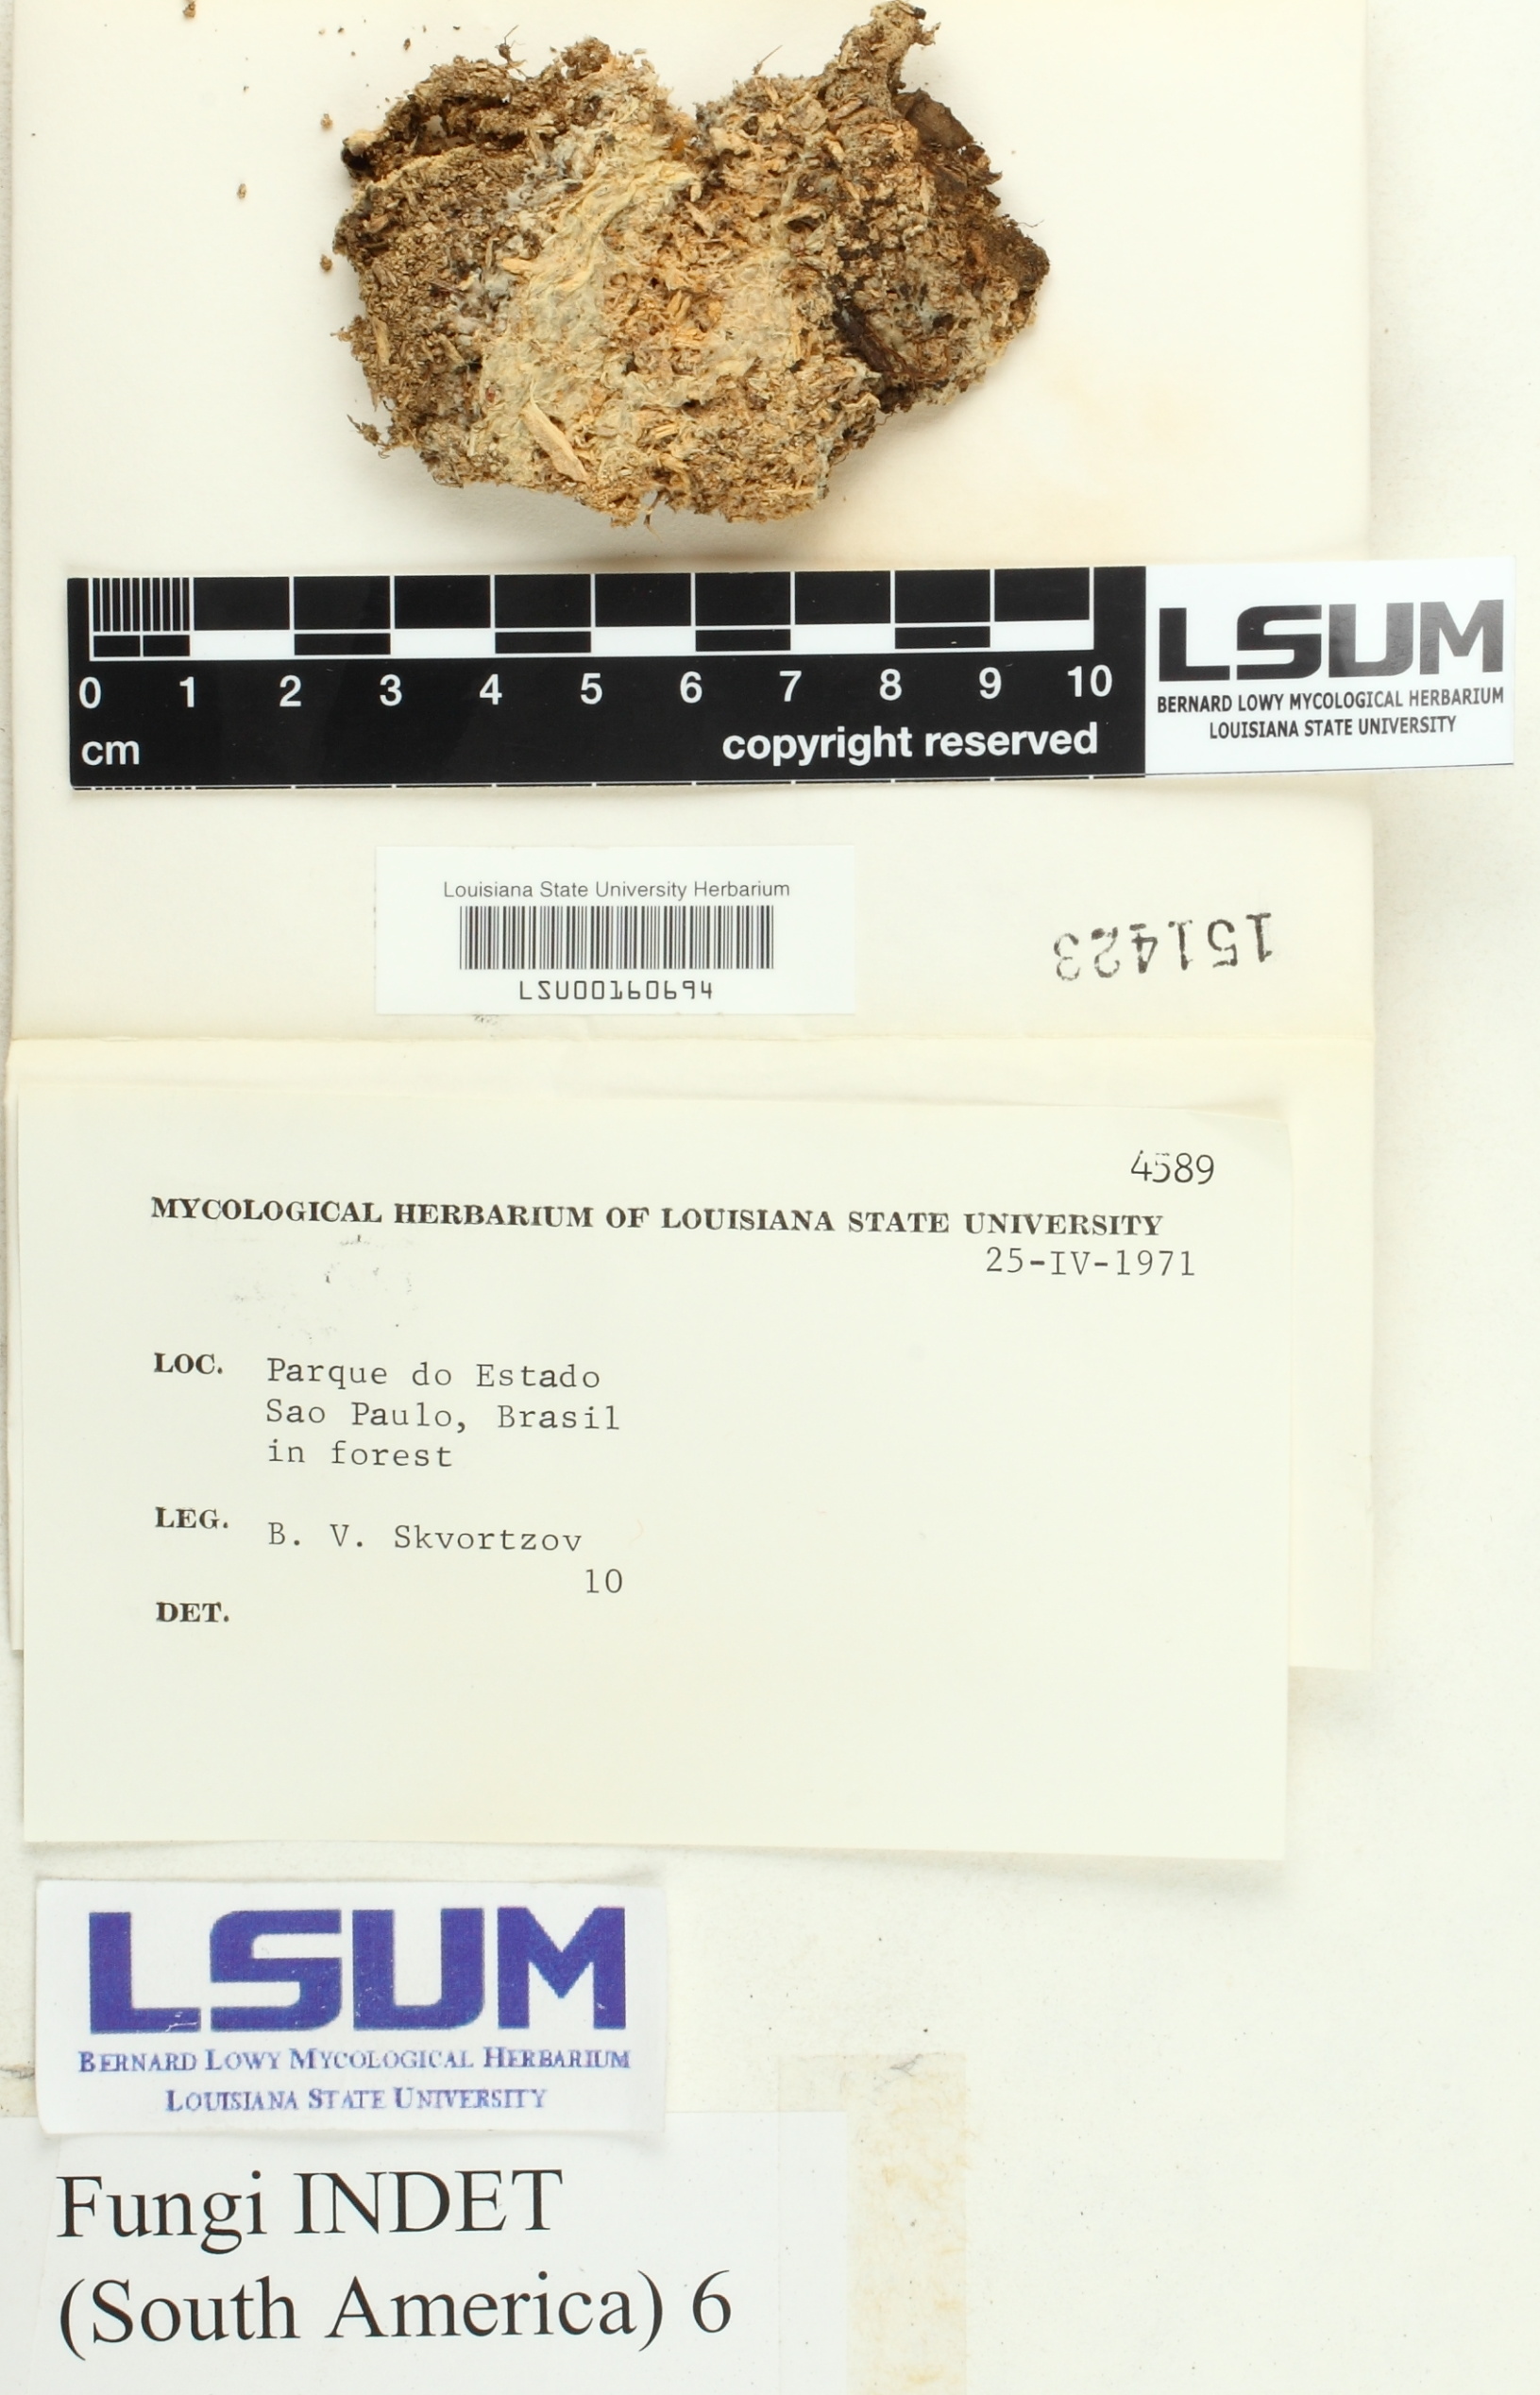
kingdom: Fungi
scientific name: Fungi
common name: Fungi
